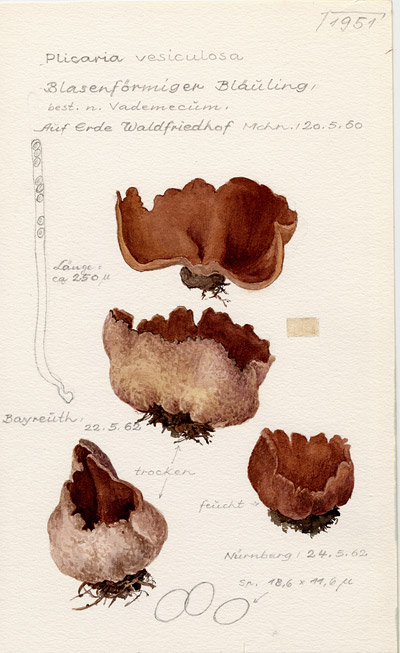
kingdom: Fungi
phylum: Ascomycota
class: Pezizomycetes
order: Pezizales
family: Pezizaceae
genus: Peziza
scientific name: Peziza vesiculosa
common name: Blistered cup
